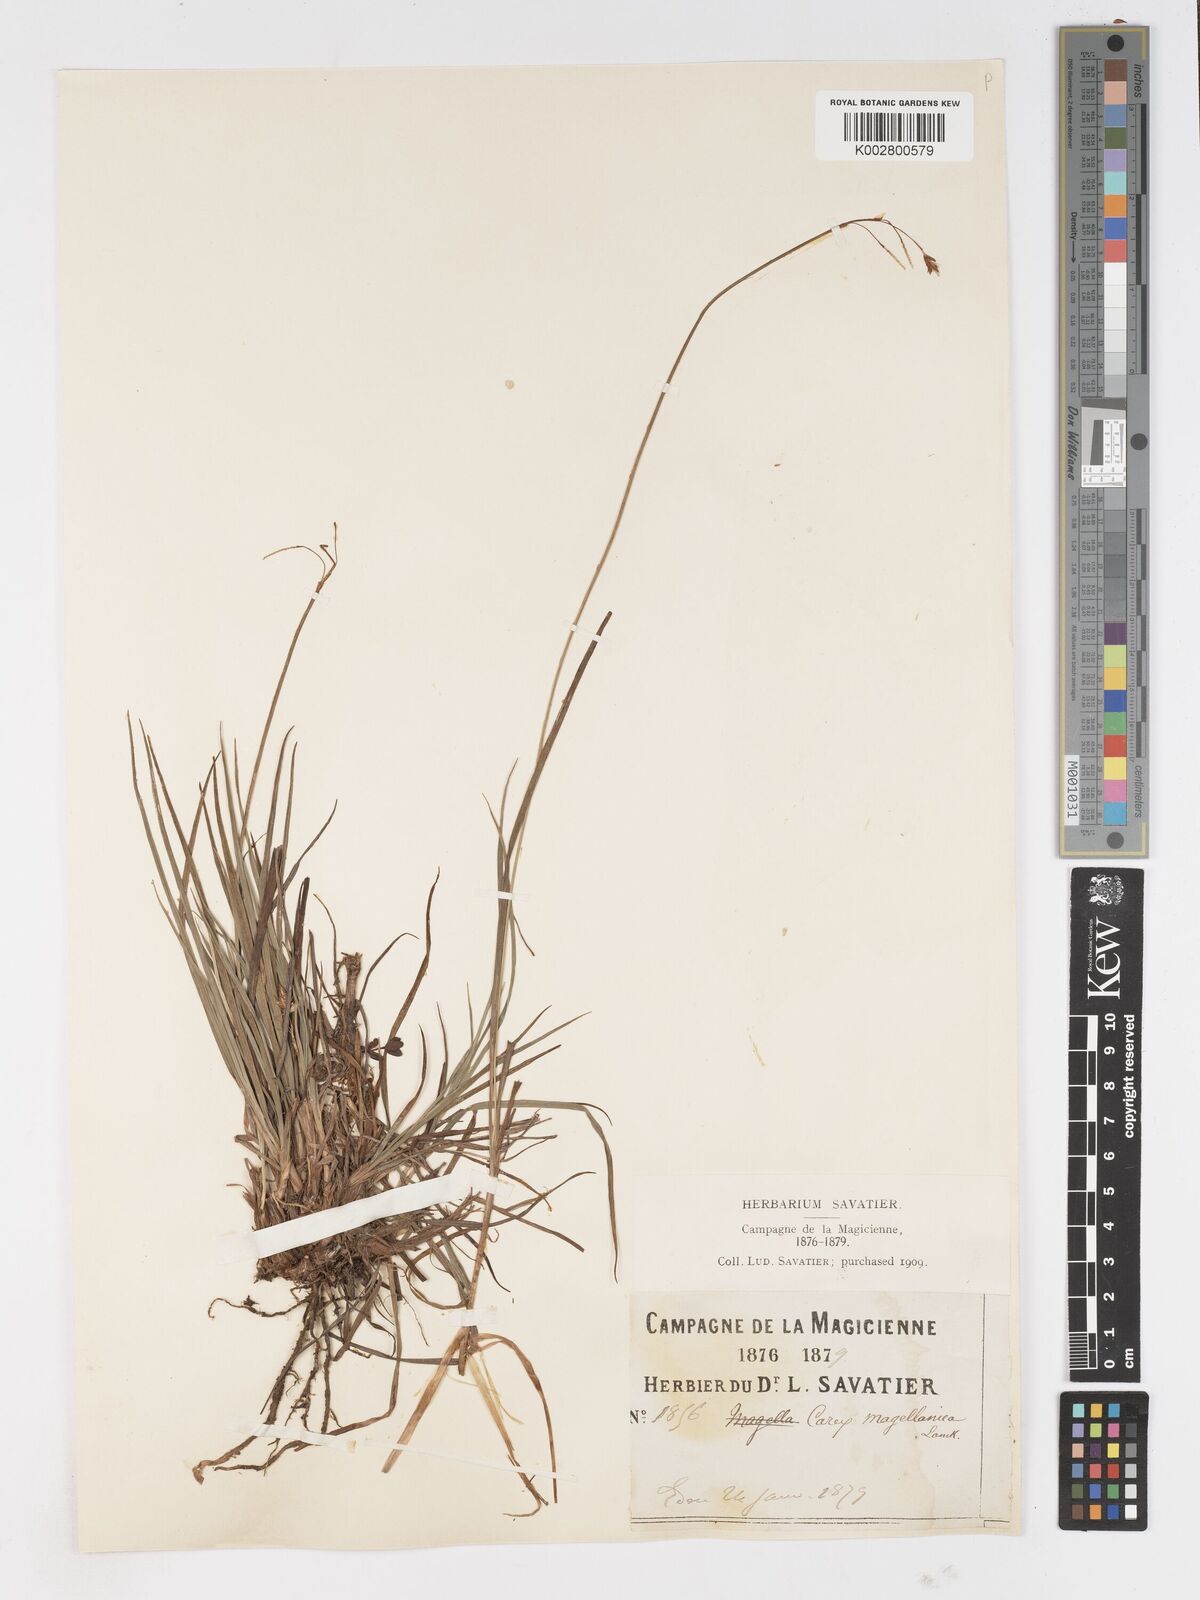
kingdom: Plantae
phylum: Tracheophyta
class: Liliopsida
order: Poales
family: Cyperaceae
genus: Carex
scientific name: Carex magellanica
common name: Bog sedge
